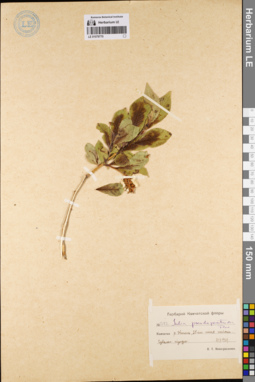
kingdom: Plantae
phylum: Tracheophyta
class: Magnoliopsida
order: Malpighiales
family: Salicaceae
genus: Salix
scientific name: Salix pseudopentandra
